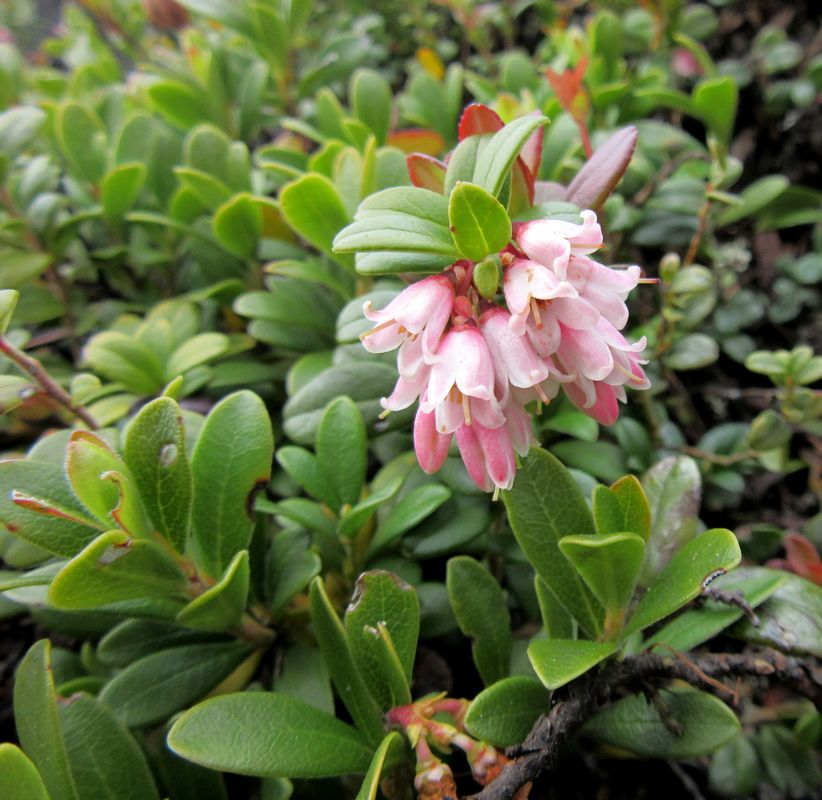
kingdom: Plantae
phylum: Tracheophyta
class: Magnoliopsida
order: Ericales
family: Ericaceae
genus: Vaccinium
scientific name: Vaccinium vitis-idaea
